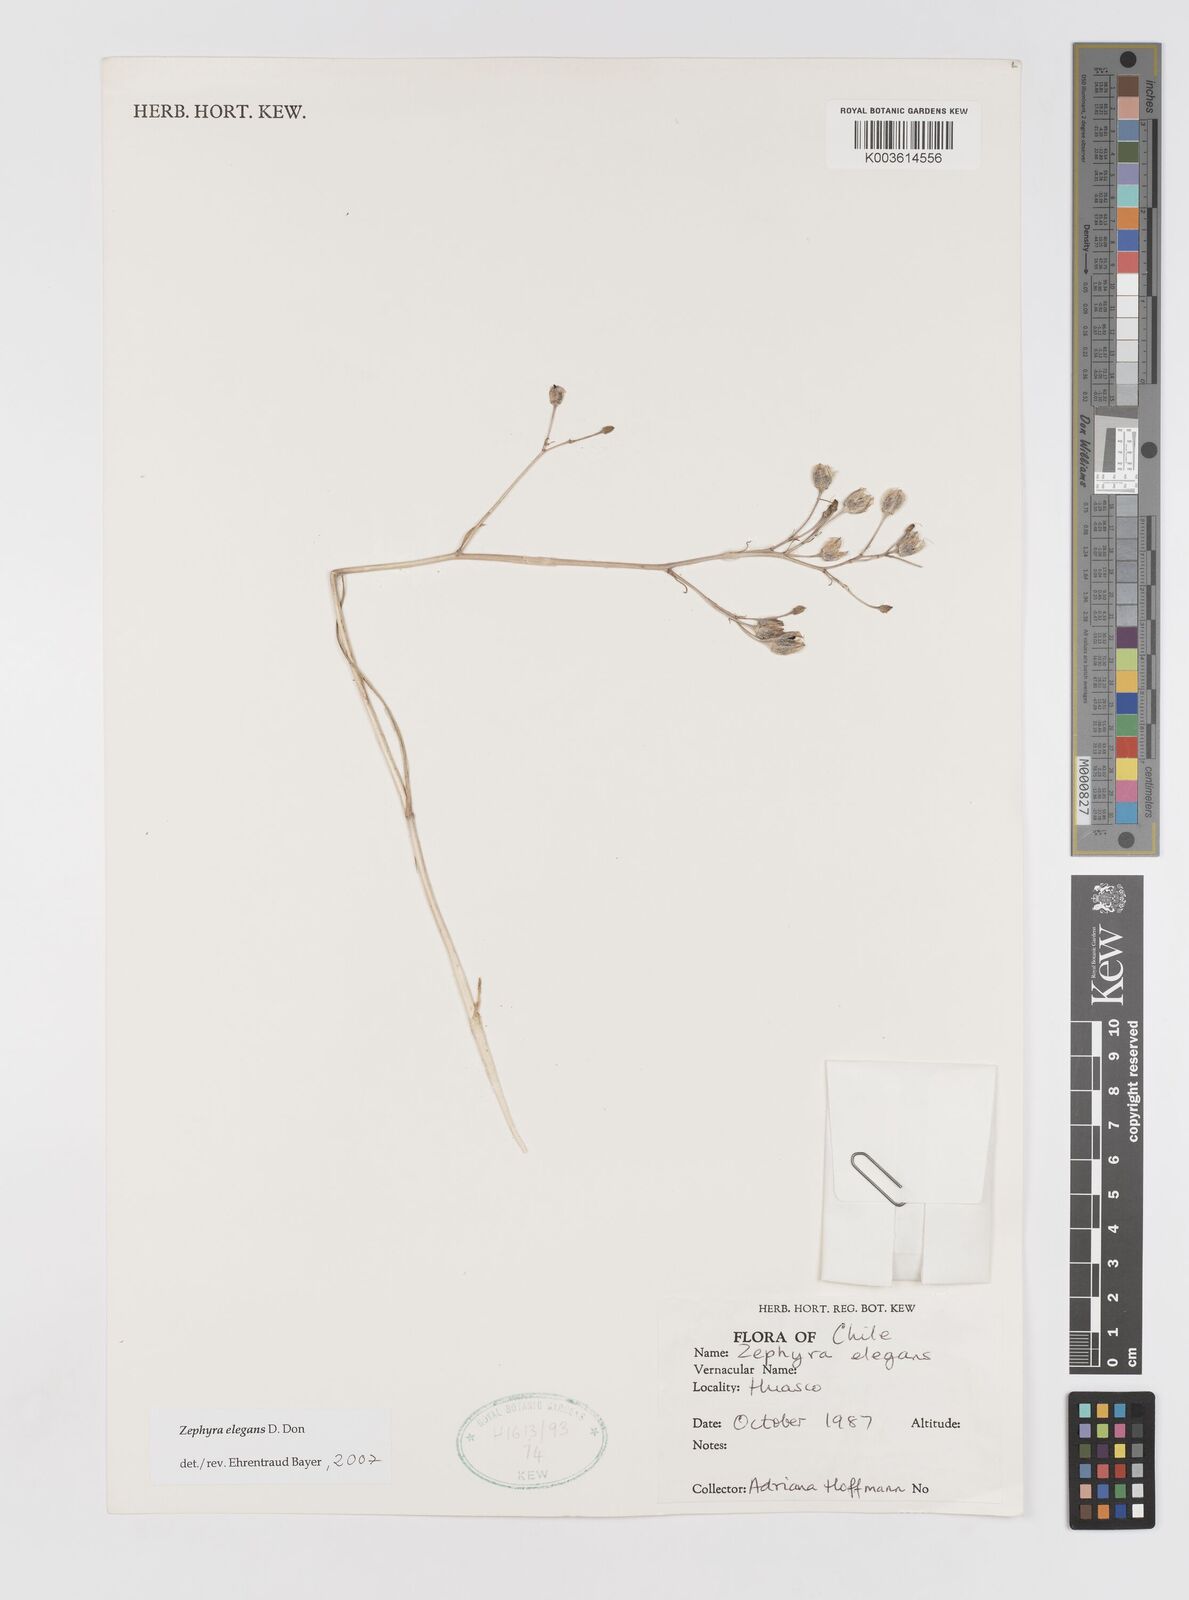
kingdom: Plantae
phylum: Tracheophyta
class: Liliopsida
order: Asparagales
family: Tecophilaeaceae
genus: Zephyra
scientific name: Zephyra elegans
